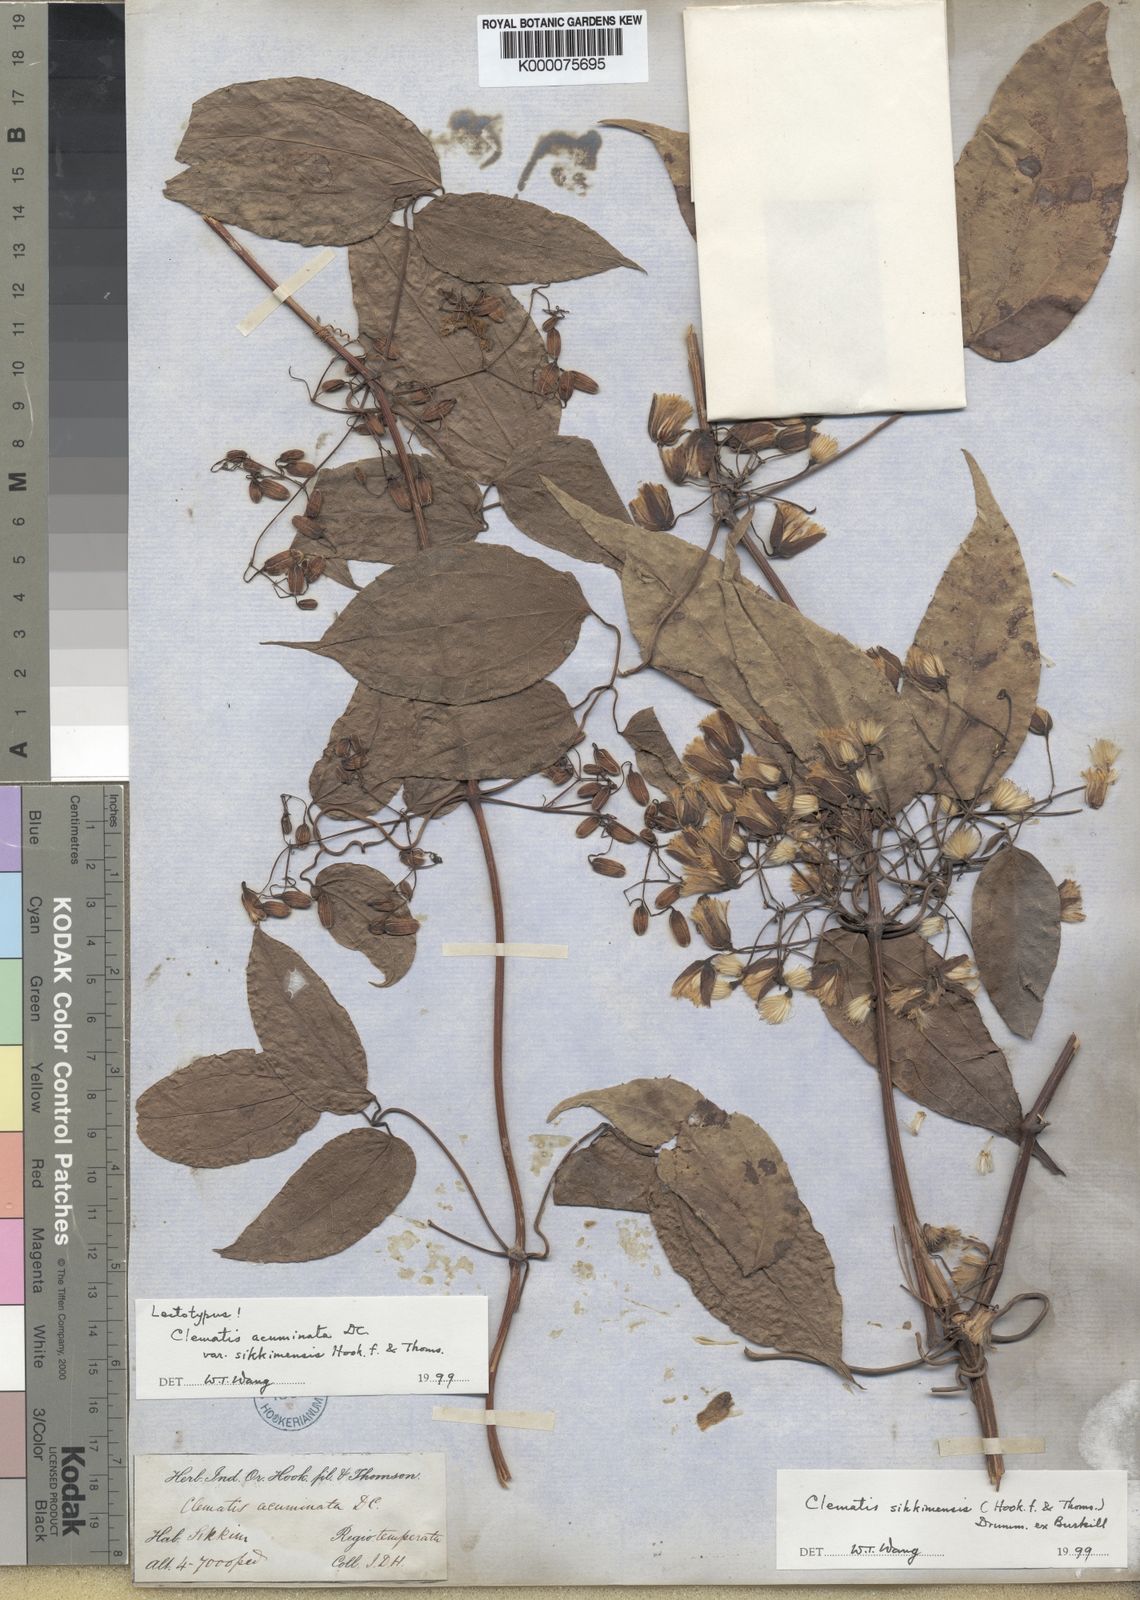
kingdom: Plantae
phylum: Tracheophyta
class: Magnoliopsida
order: Ranunculales
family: Ranunculaceae
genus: Clematis
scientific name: Clematis acuminata
